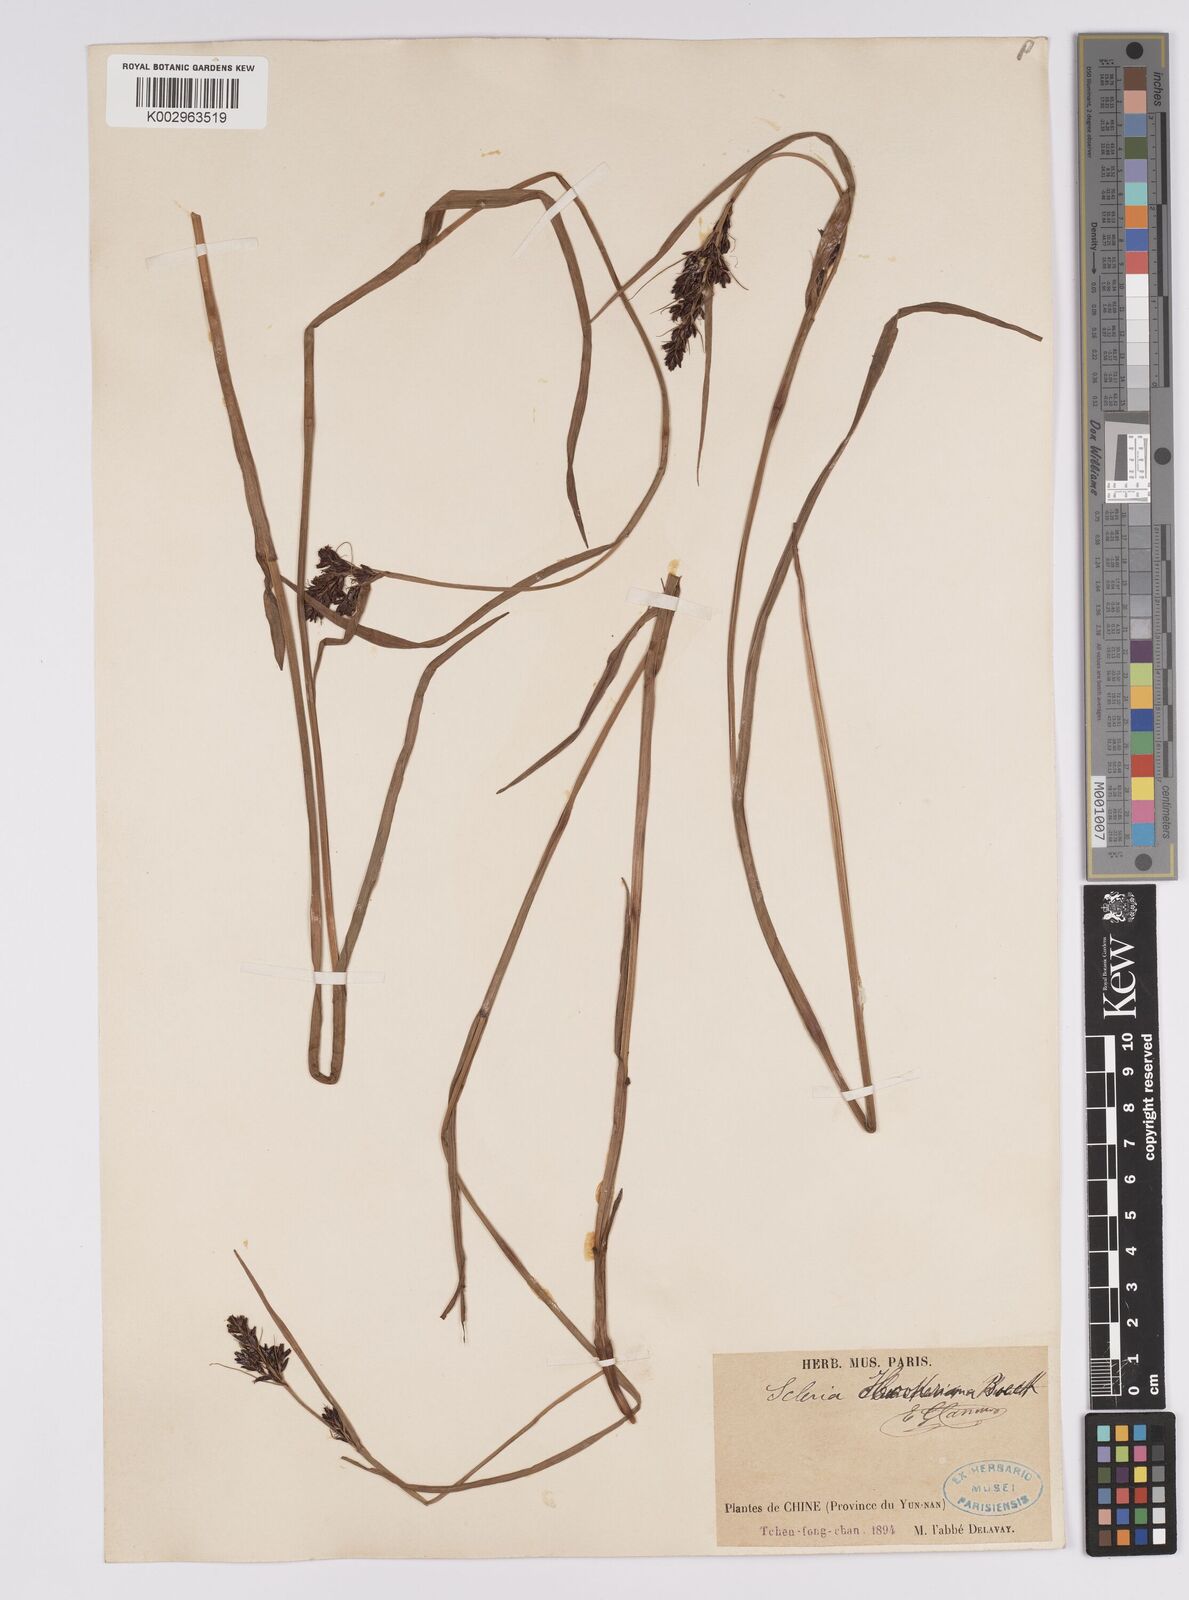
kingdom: Plantae
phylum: Tracheophyta
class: Liliopsida
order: Poales
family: Cyperaceae
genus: Scleria
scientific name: Scleria terrestris
